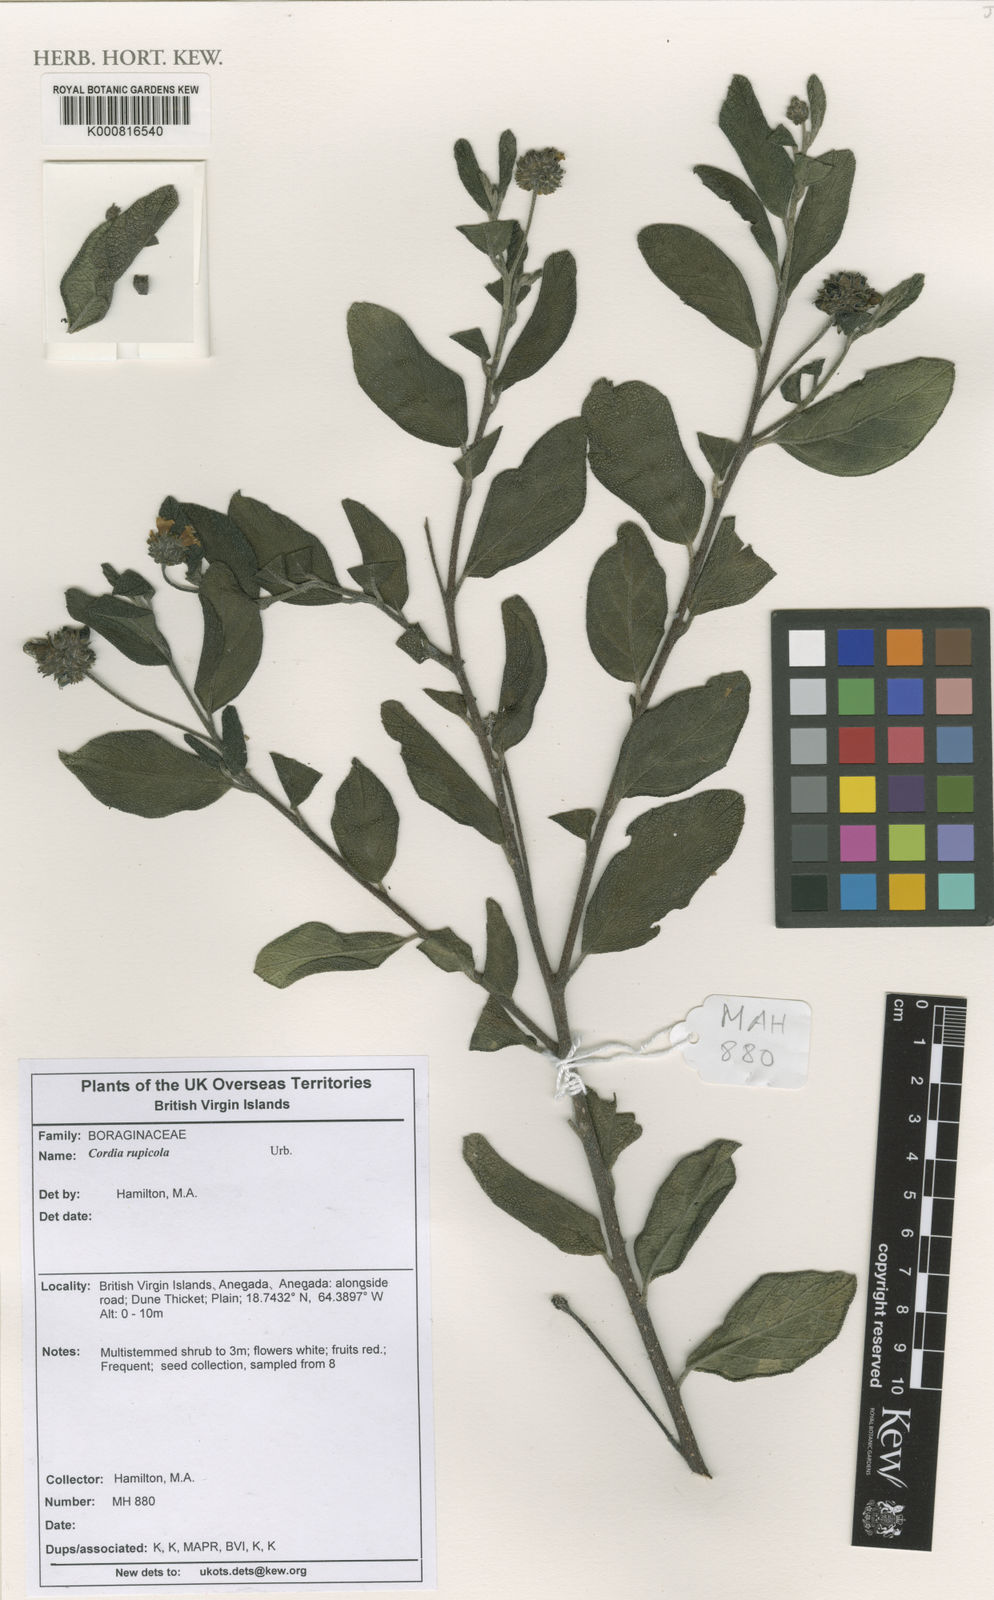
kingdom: Plantae
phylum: Tracheophyta
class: Magnoliopsida
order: Boraginales
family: Cordiaceae
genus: Varronia
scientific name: Varronia rupicola
